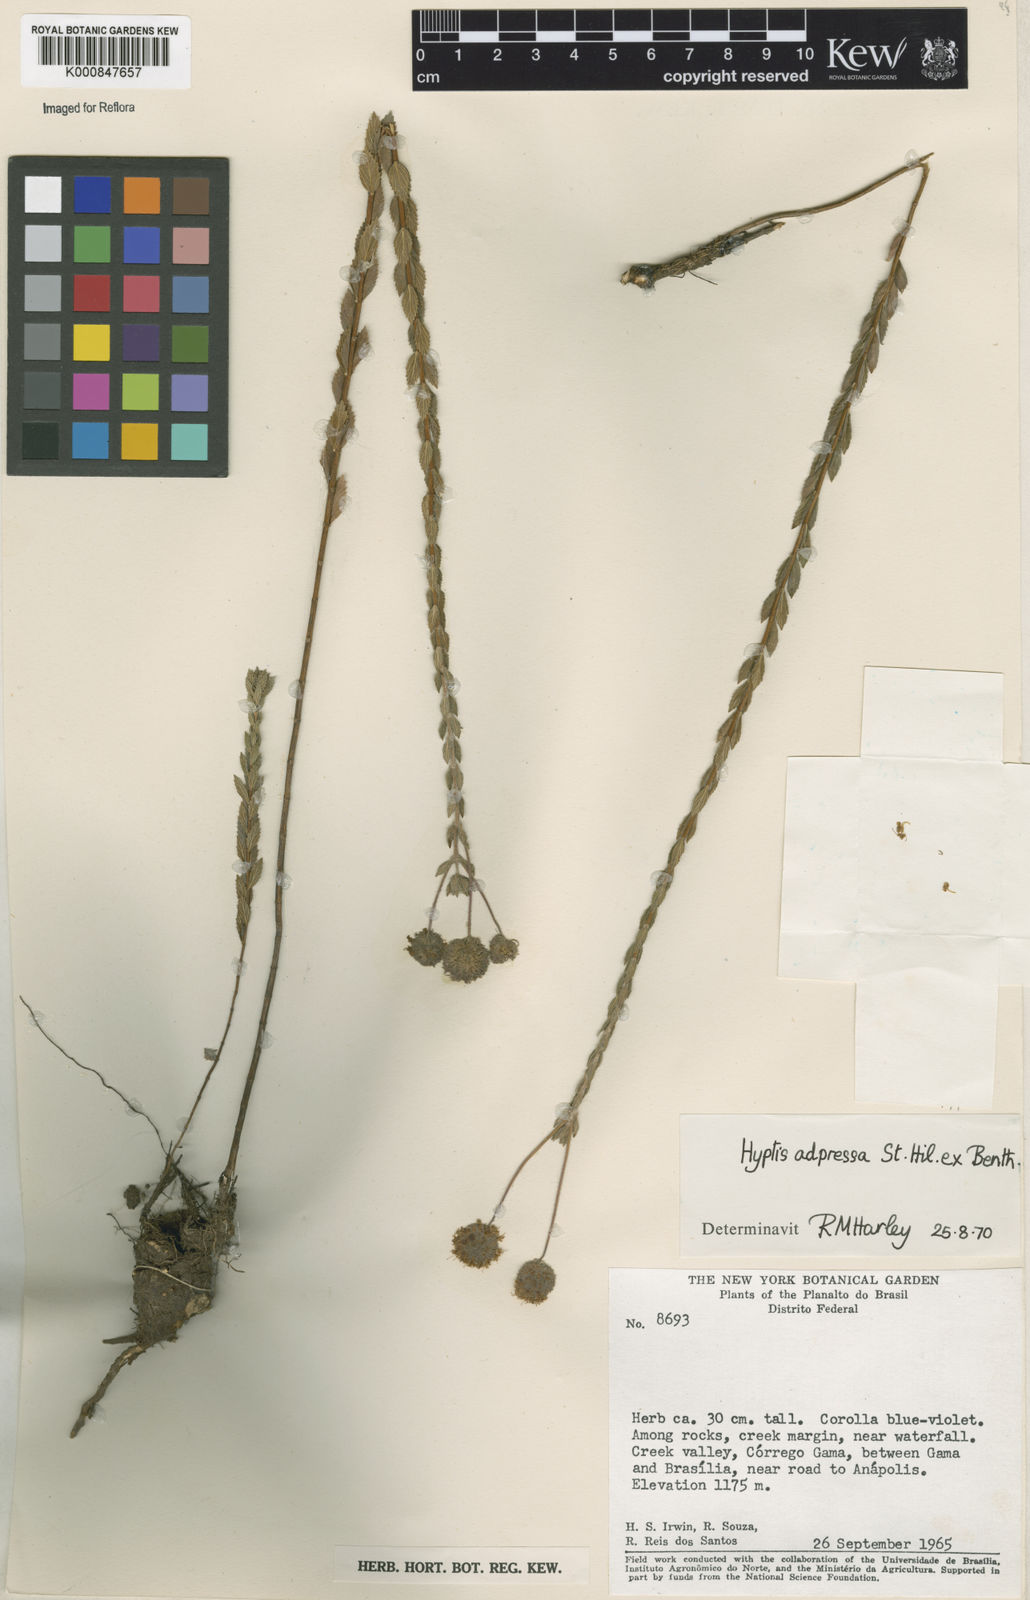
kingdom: Plantae
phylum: Tracheophyta
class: Magnoliopsida
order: Lamiales
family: Lamiaceae
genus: Cyanocephalus
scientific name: Cyanocephalus adpressus
